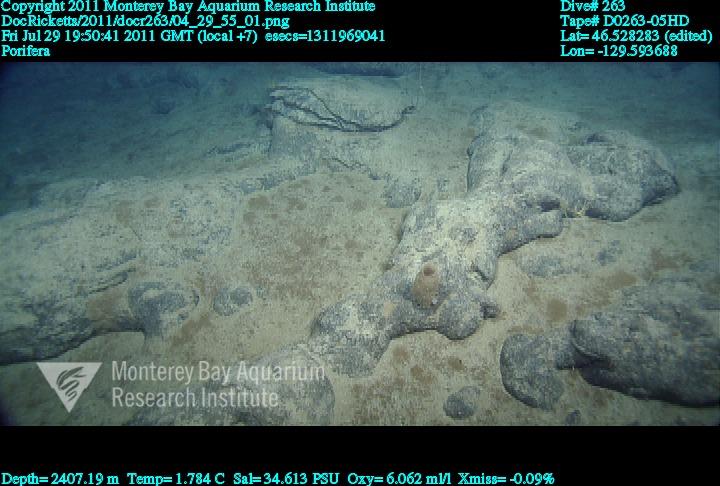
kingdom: Animalia
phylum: Porifera
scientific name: Porifera
